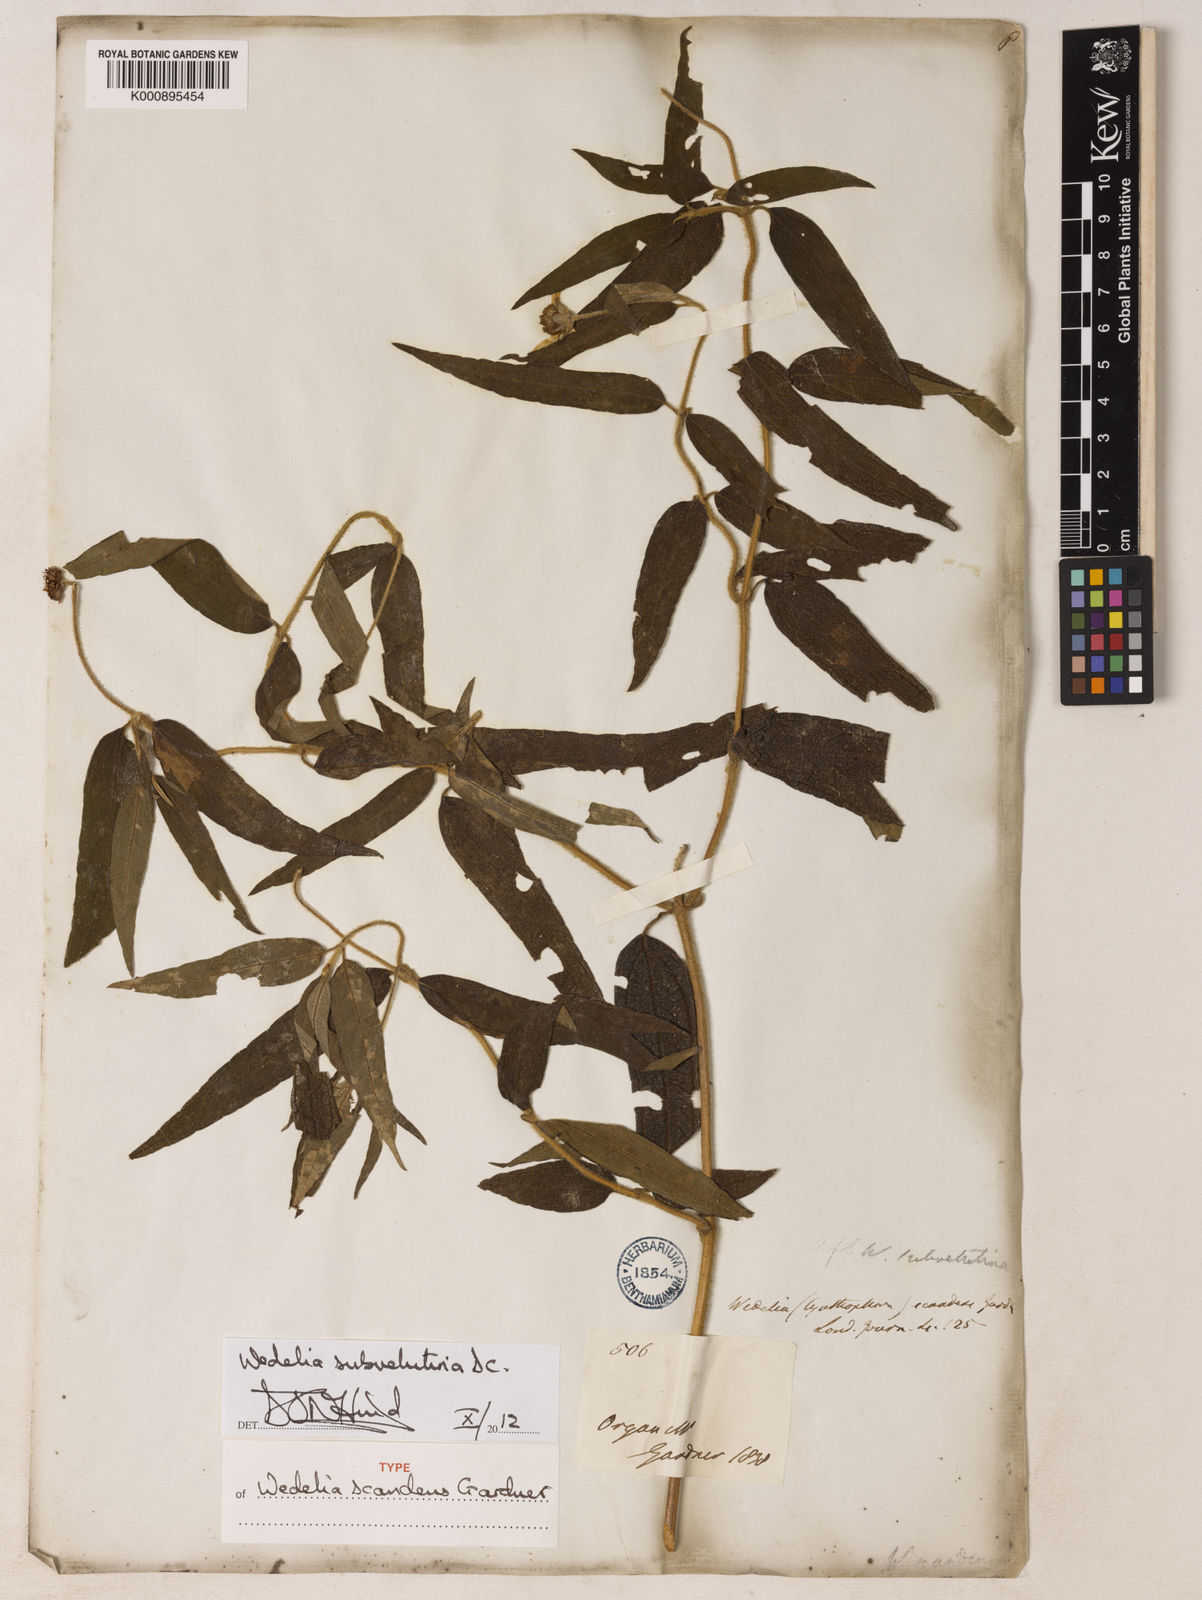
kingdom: Plantae
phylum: Tracheophyta
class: Magnoliopsida
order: Asterales
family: Asteraceae
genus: Wedelia
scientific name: Wedelia subvelutina
